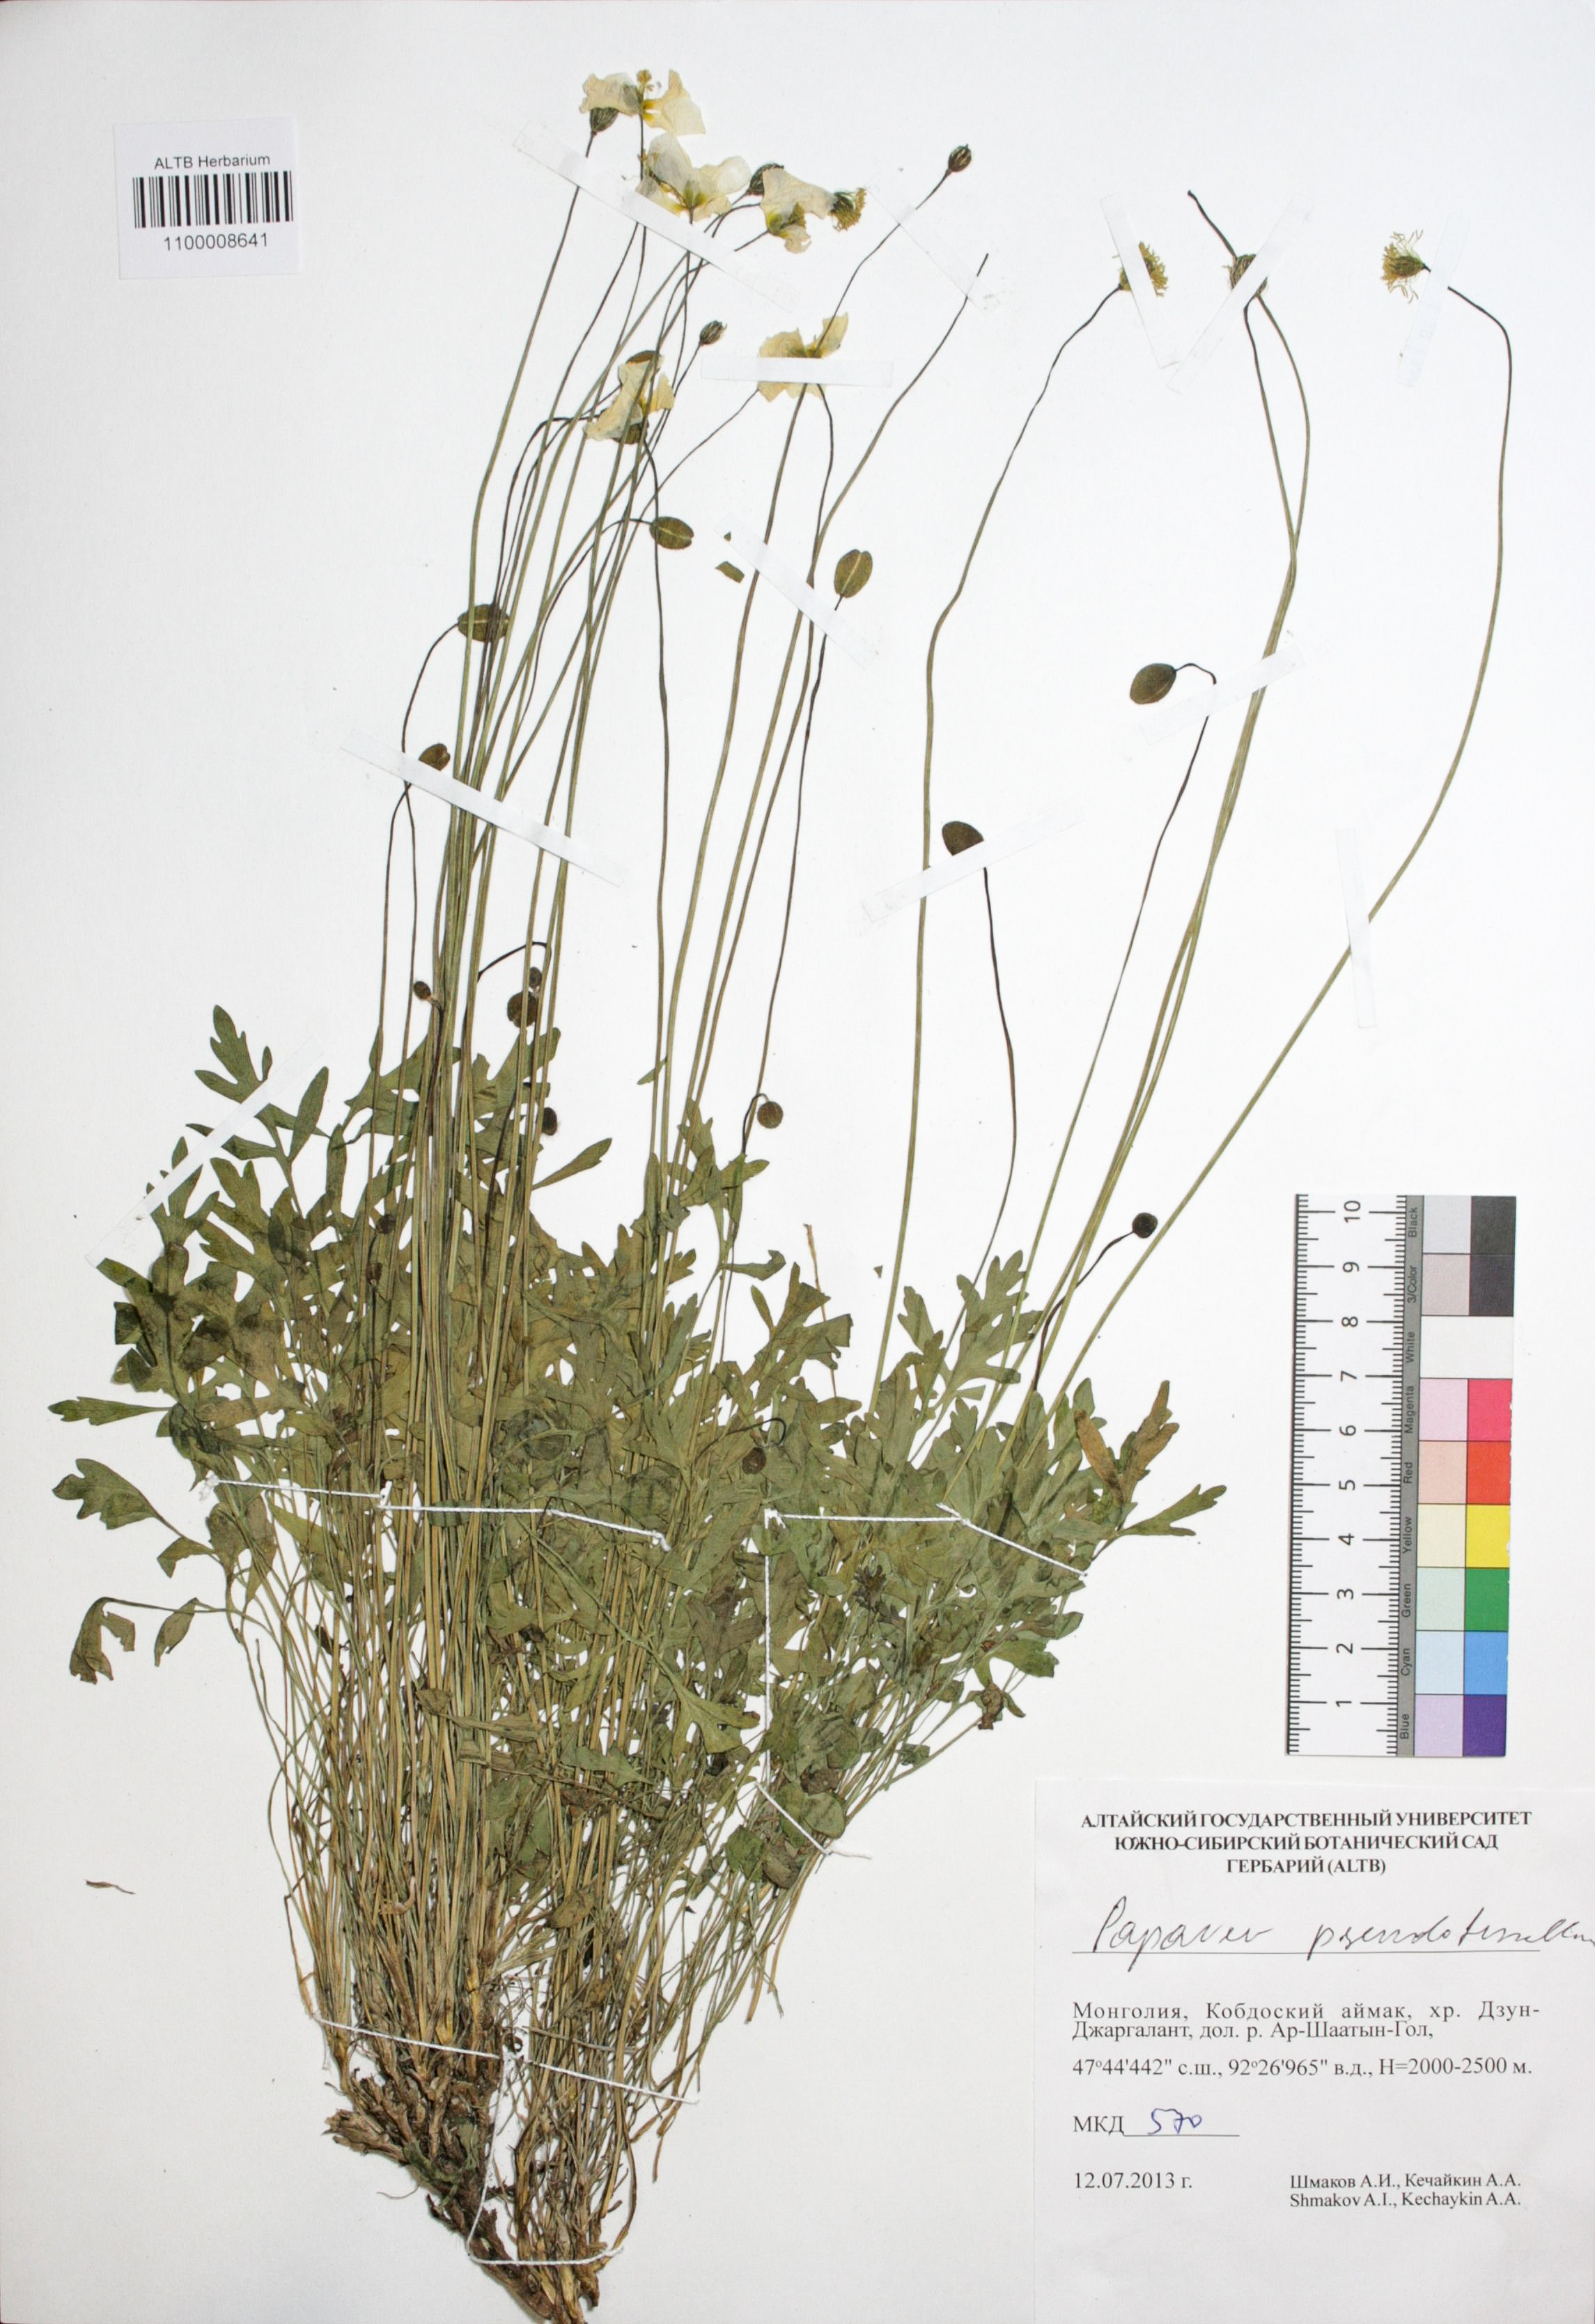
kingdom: Plantae
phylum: Tracheophyta
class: Magnoliopsida
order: Ranunculales
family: Papaveraceae
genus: Papaver
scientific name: Papaver canescens
